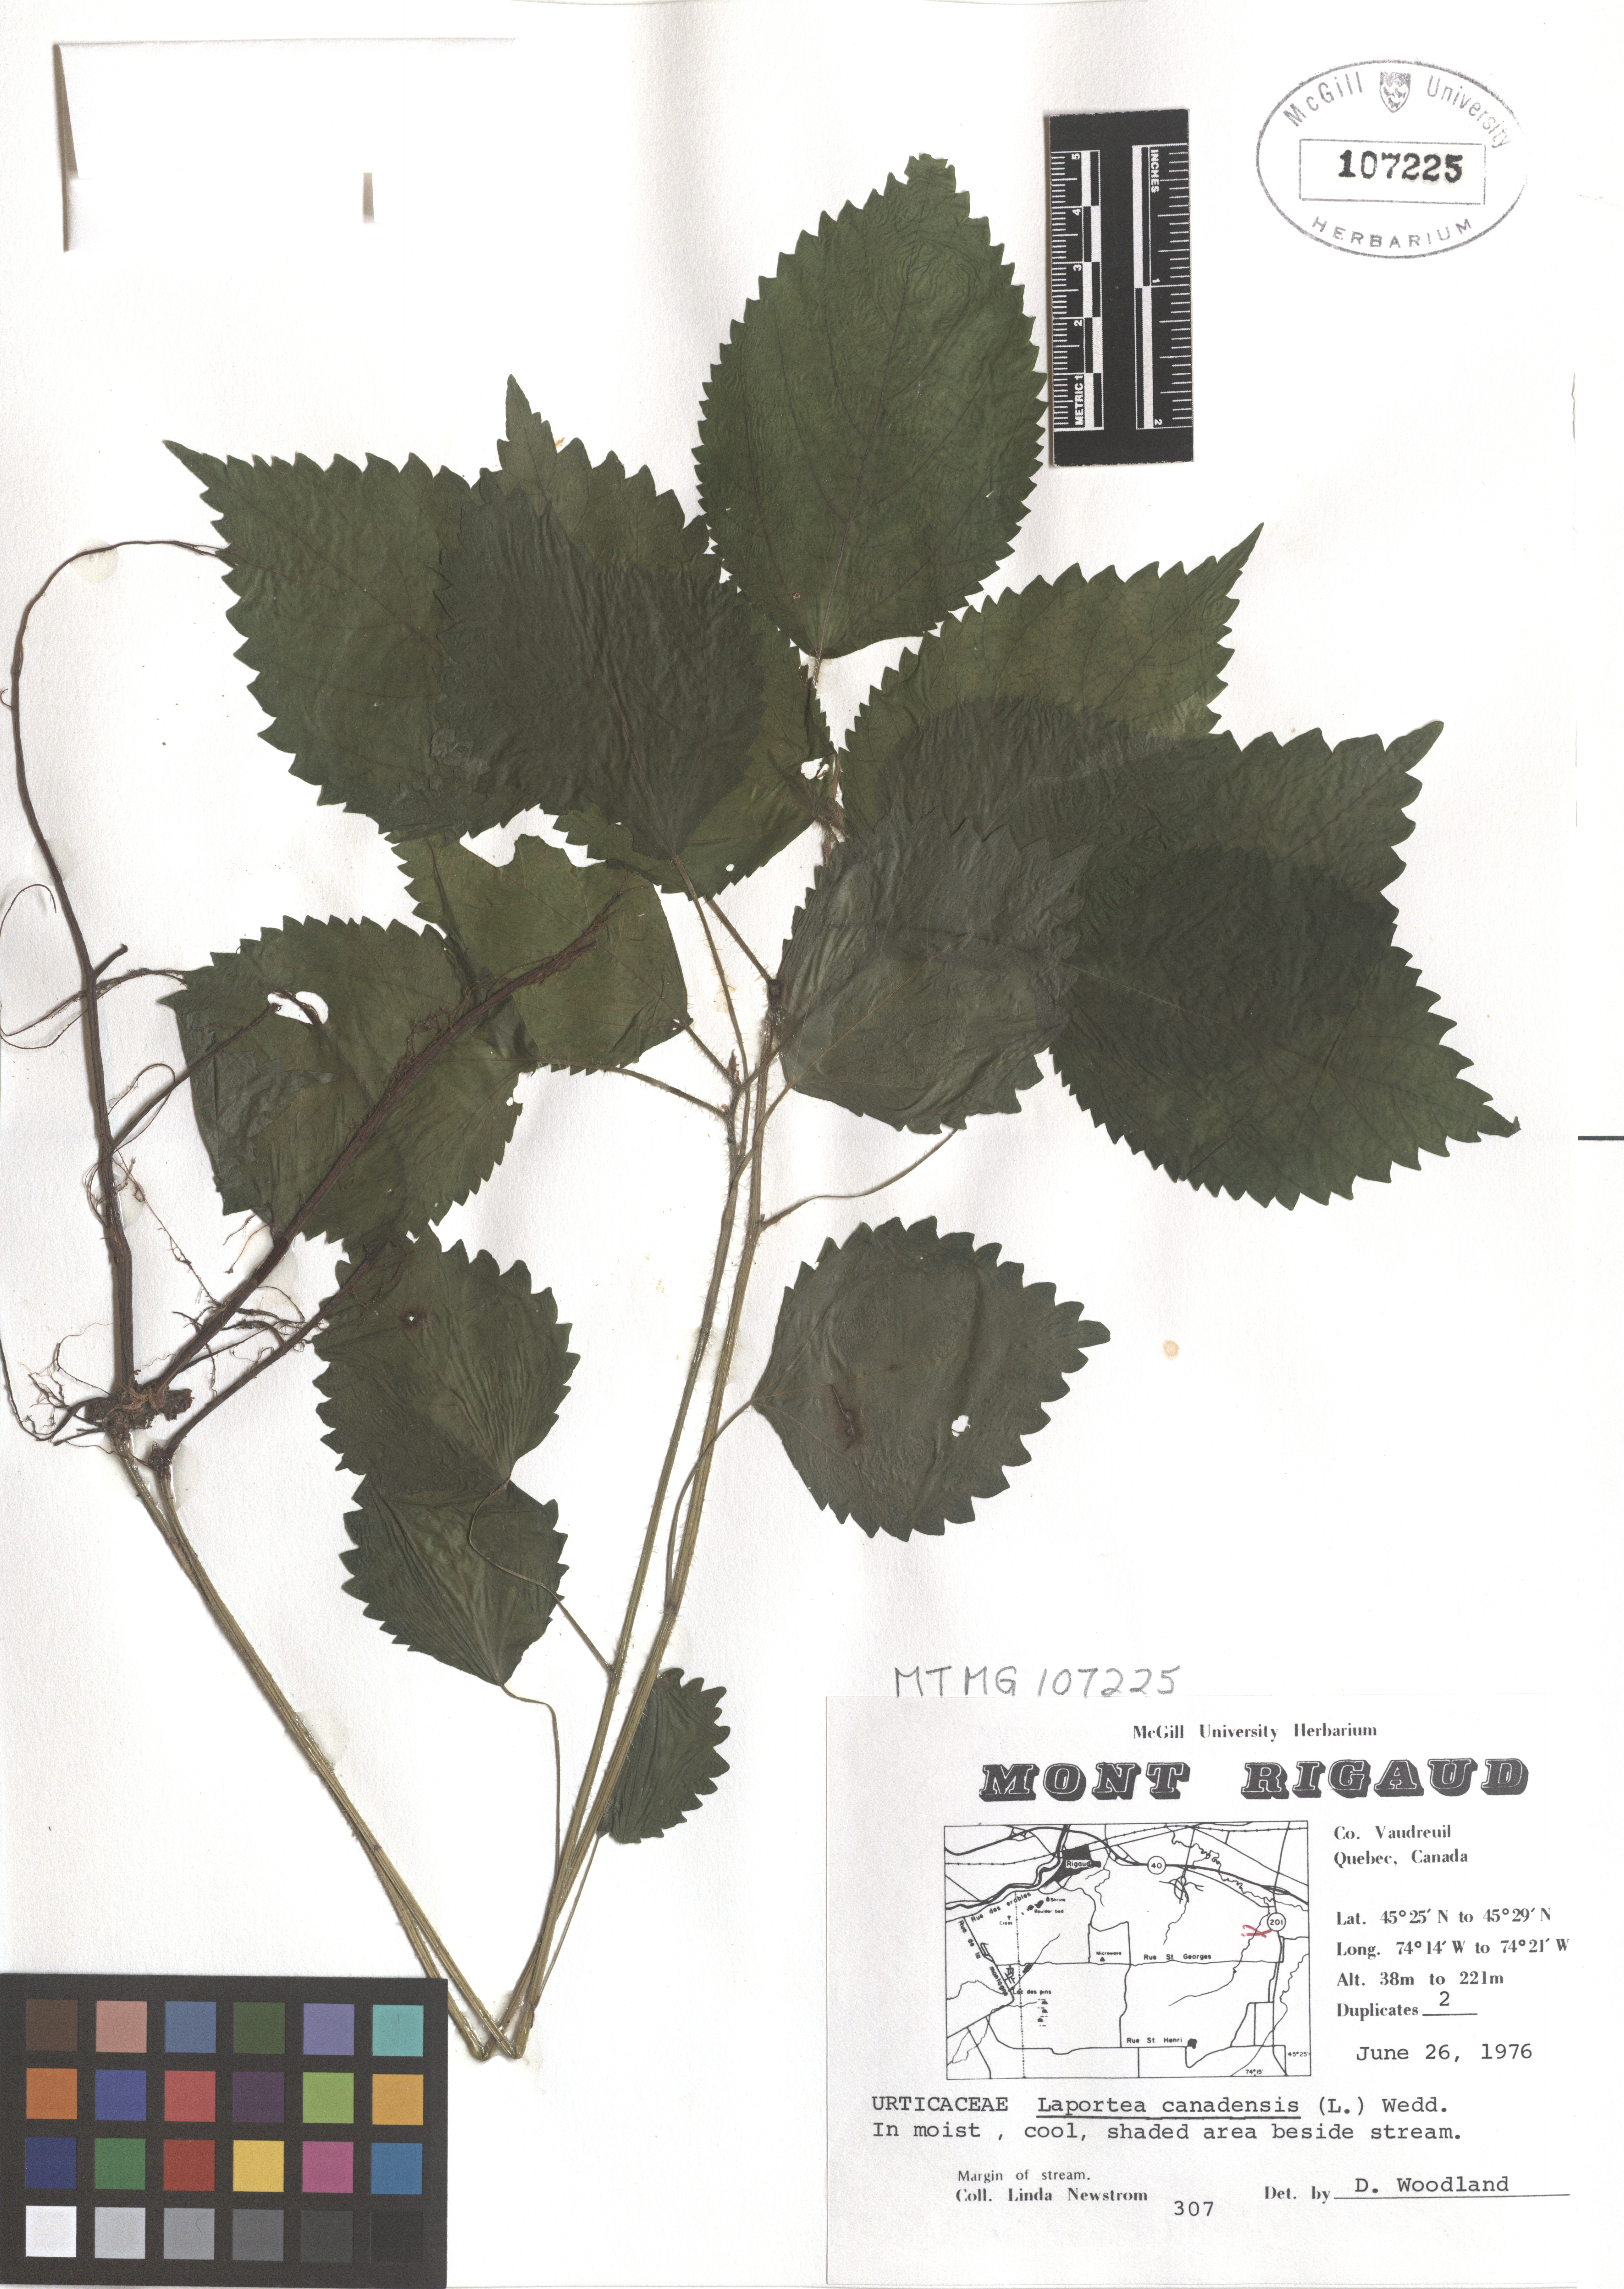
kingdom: Plantae
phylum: Tracheophyta
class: Magnoliopsida
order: Rosales
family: Urticaceae
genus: Laportea
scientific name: Laportea canadensis
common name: Canada nettle
